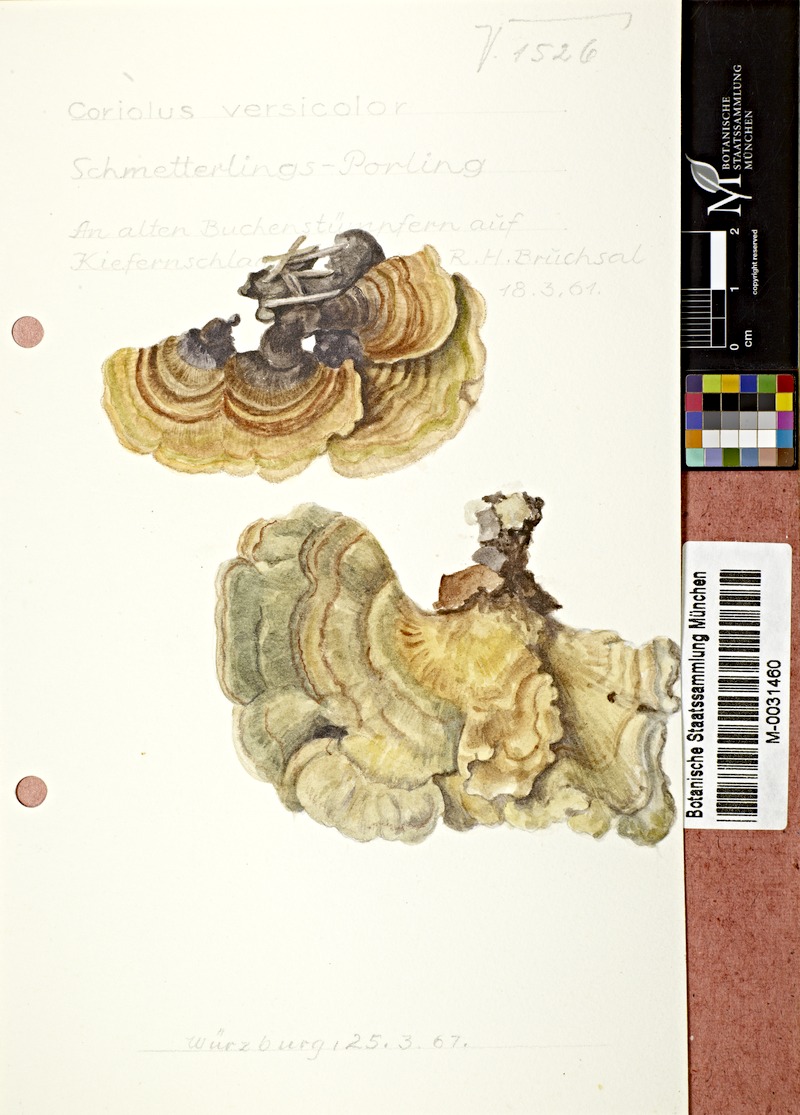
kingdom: Fungi
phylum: Basidiomycota
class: Agaricomycetes
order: Polyporales
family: Polyporaceae
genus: Trametes
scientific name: Trametes versicolor
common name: Turkeytail
